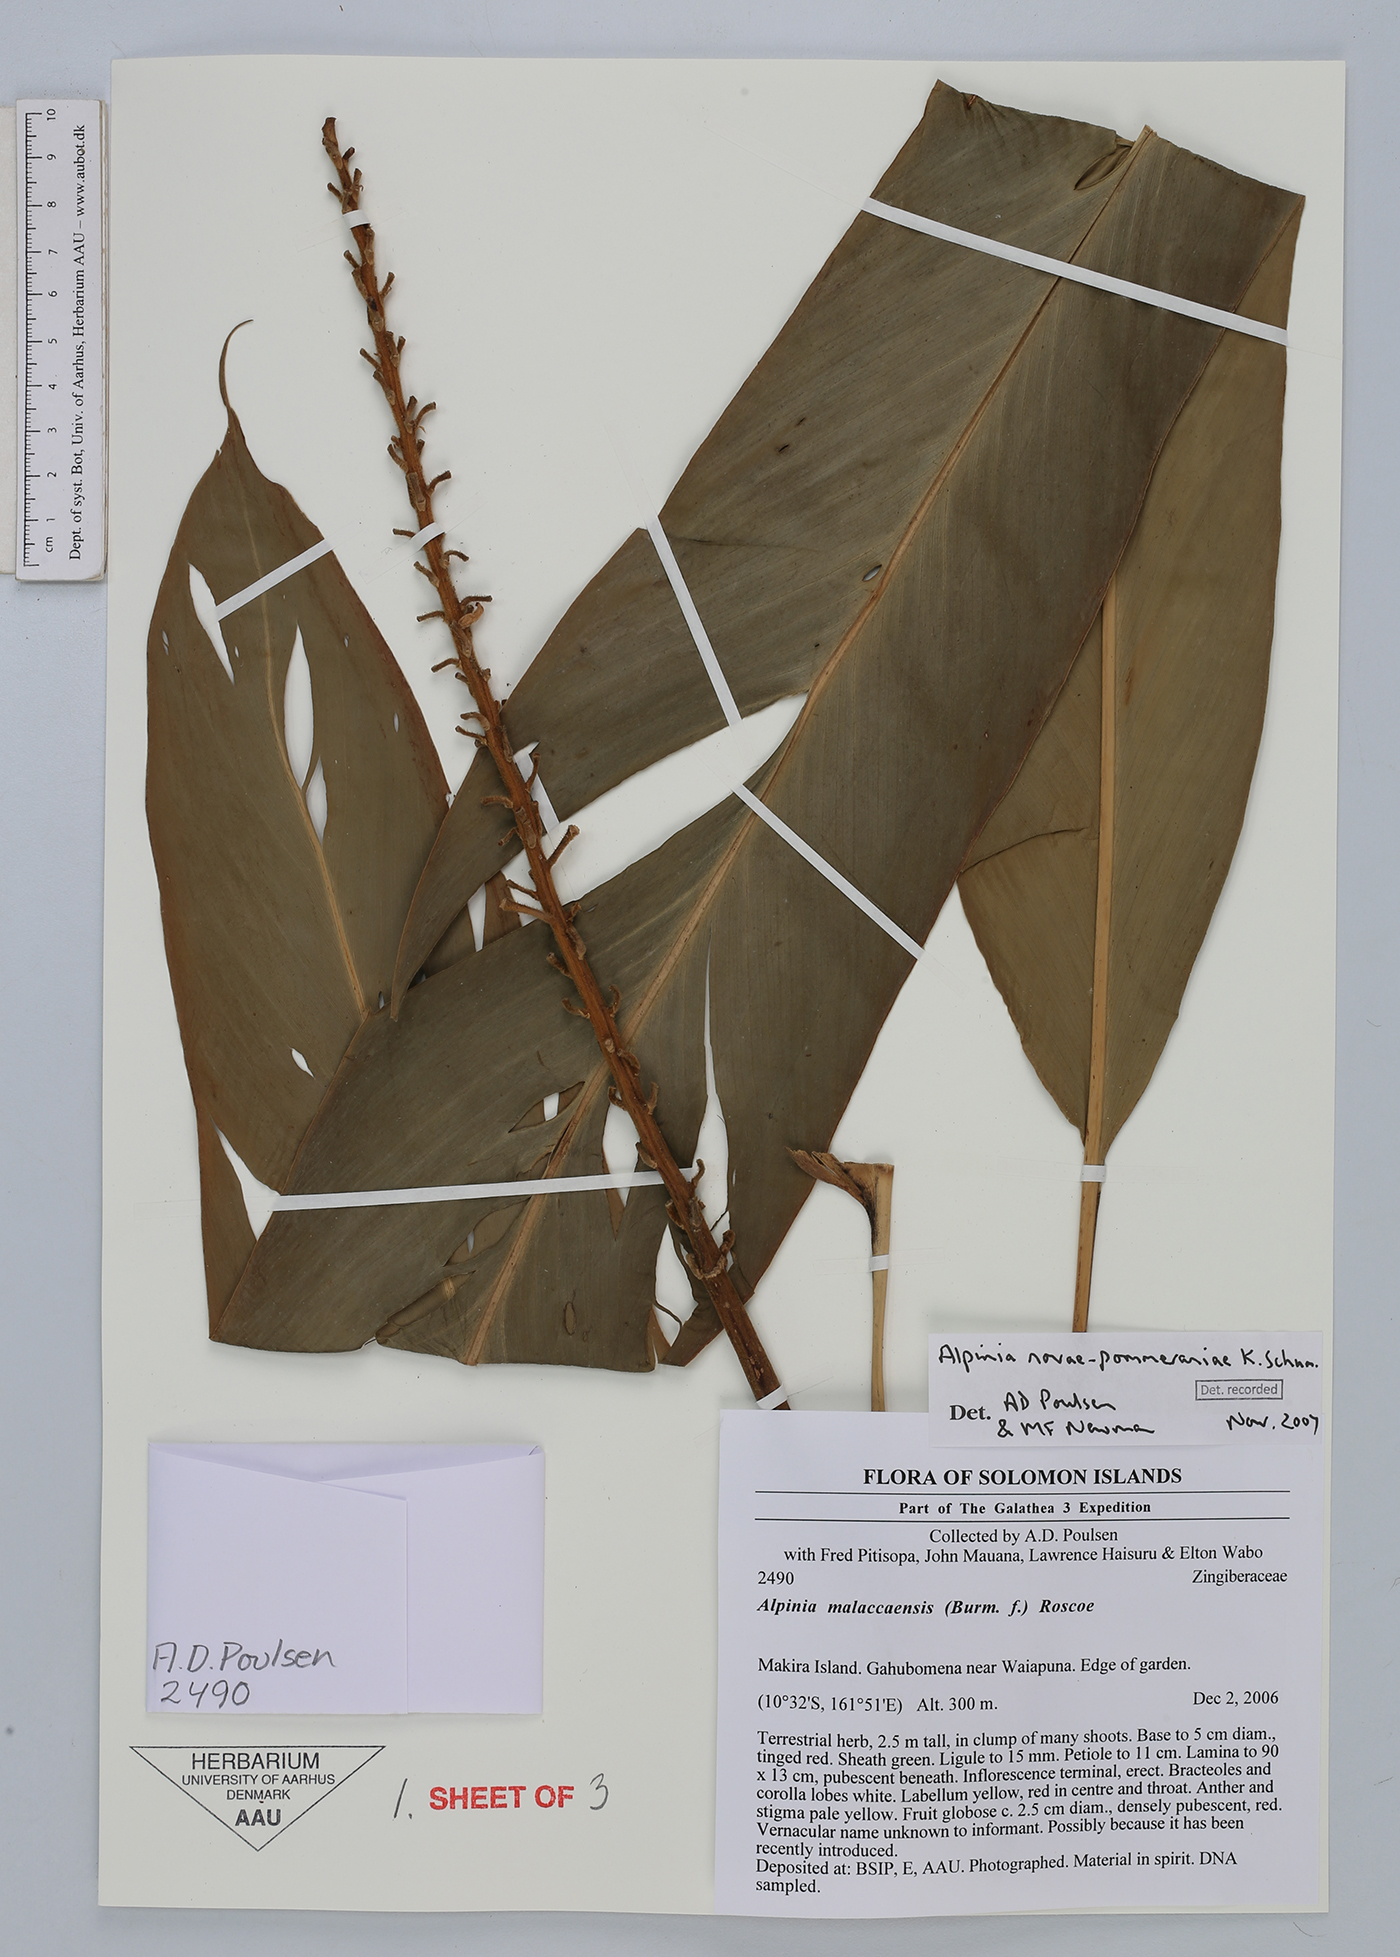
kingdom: Plantae
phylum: Tracheophyta
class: Liliopsida
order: Zingiberales
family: Zingiberaceae
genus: Alpinia
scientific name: Alpinia novae-pommeraniae
